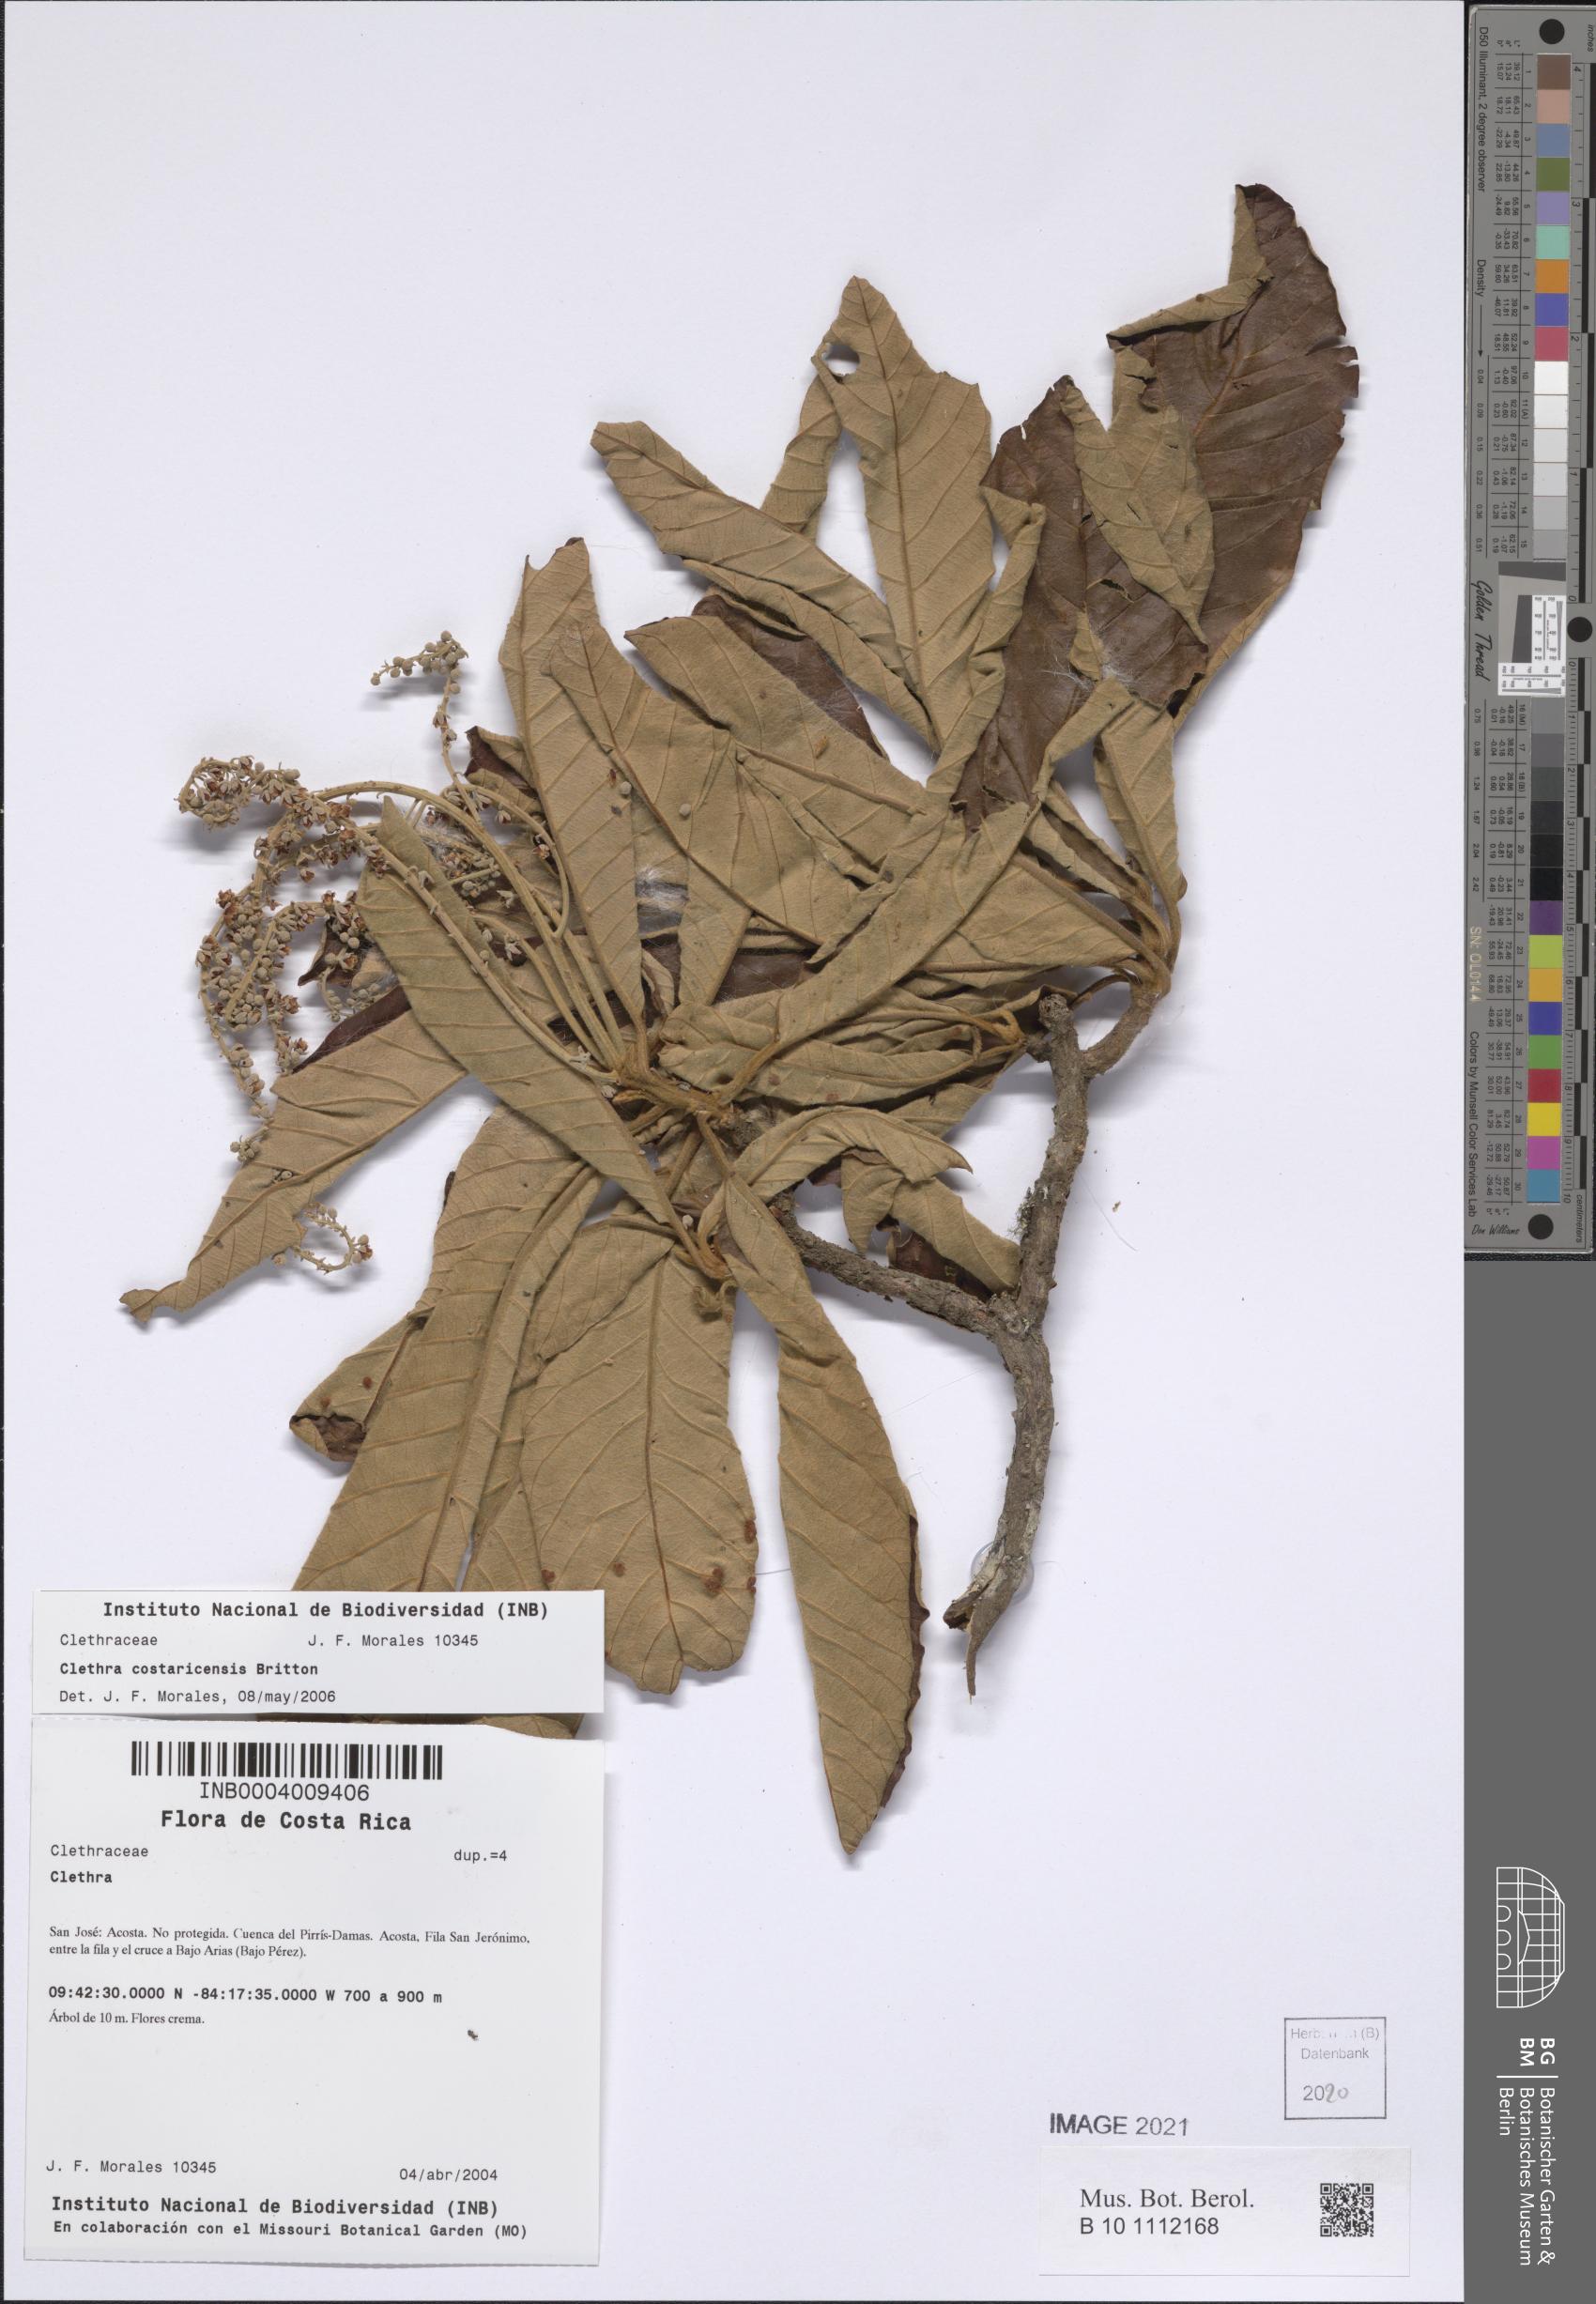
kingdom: Plantae
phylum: Tracheophyta
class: Magnoliopsida
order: Ericales
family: Clethraceae
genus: Clethra
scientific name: Clethra costaricensis
